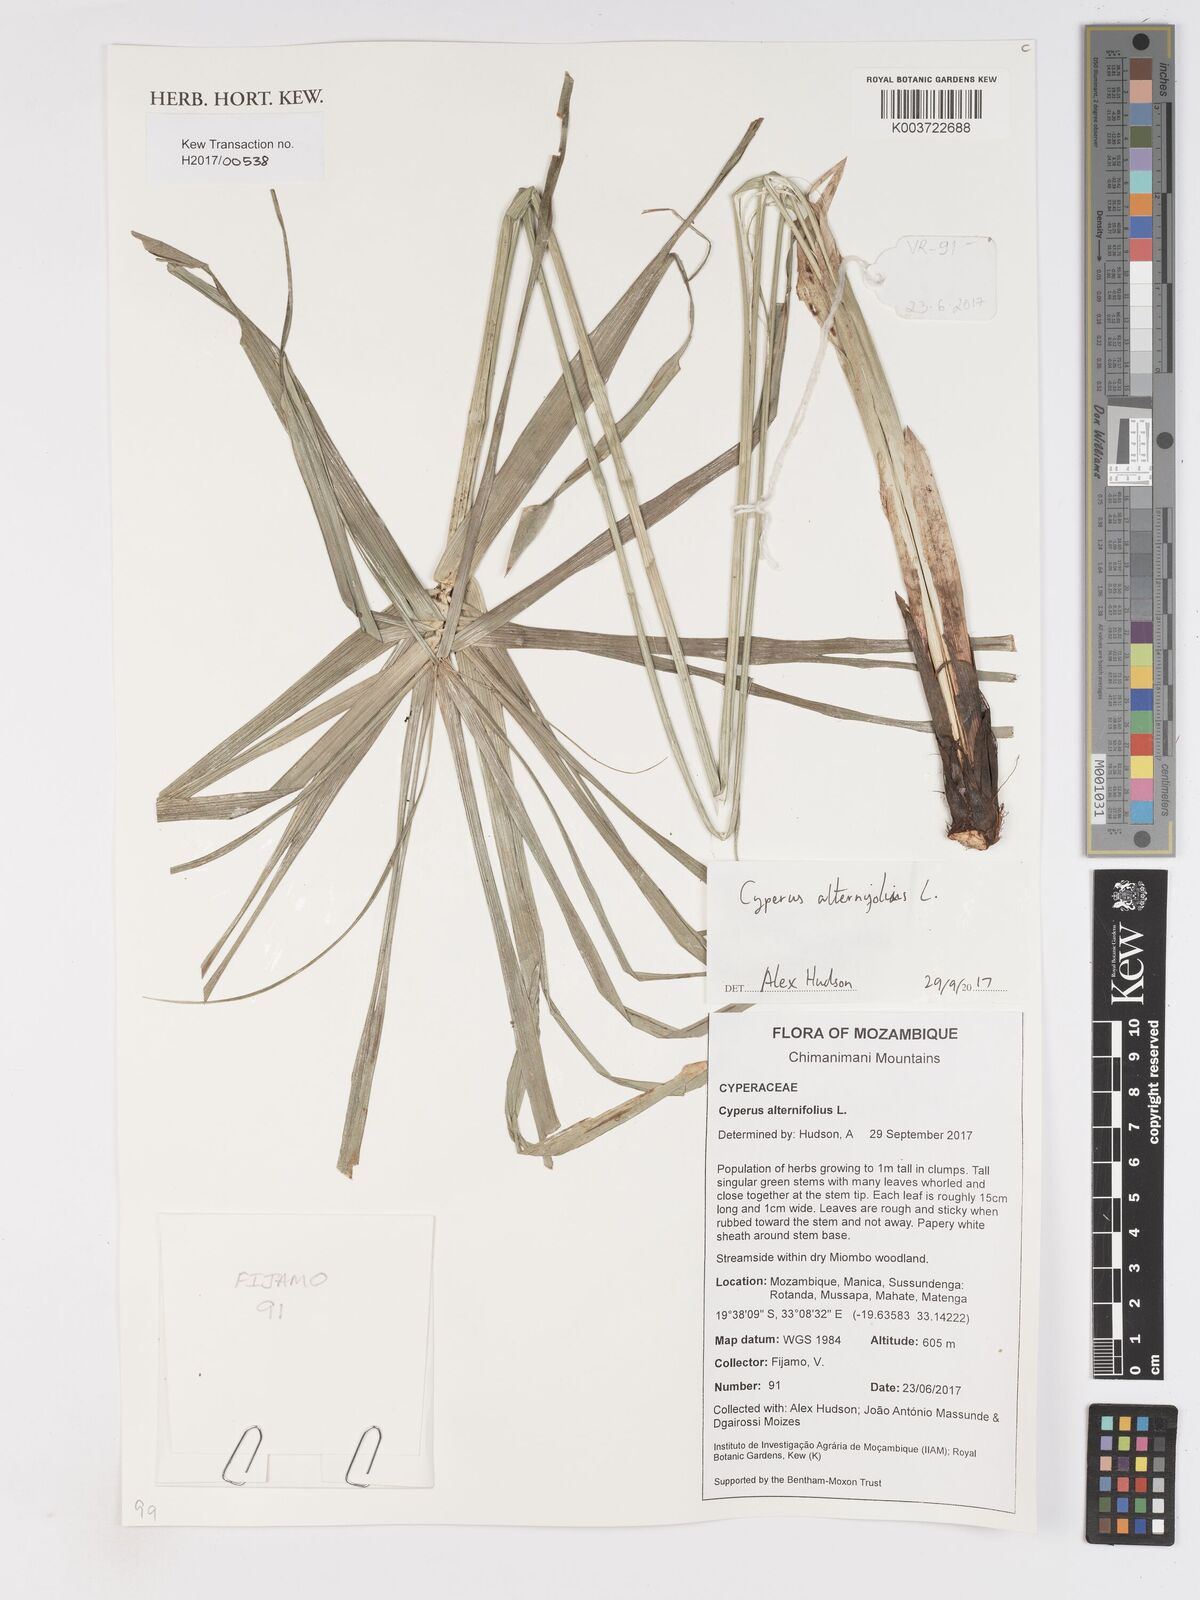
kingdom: Plantae
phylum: Tracheophyta
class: Liliopsida
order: Poales
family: Cyperaceae
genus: Cyperus
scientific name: Cyperus alternifolius
